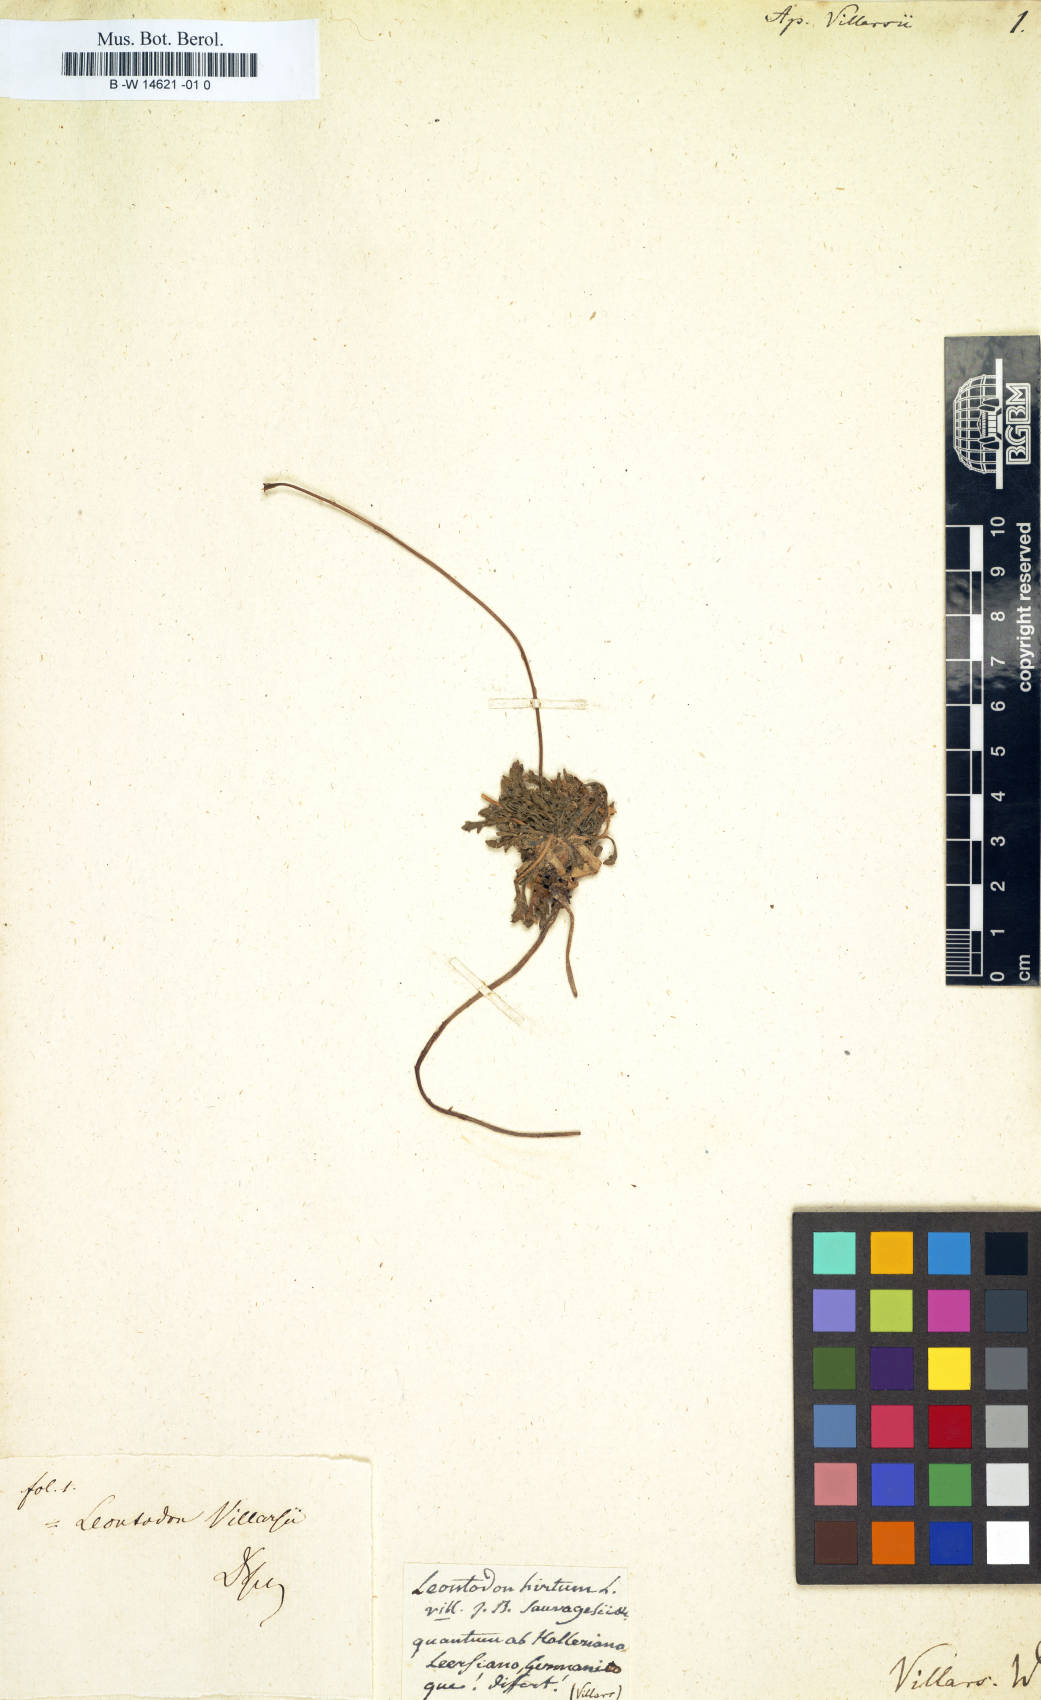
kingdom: Plantae
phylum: Tracheophyta
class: Magnoliopsida
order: Asterales
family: Asteraceae
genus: Leontodon
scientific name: Leontodon hirtus
